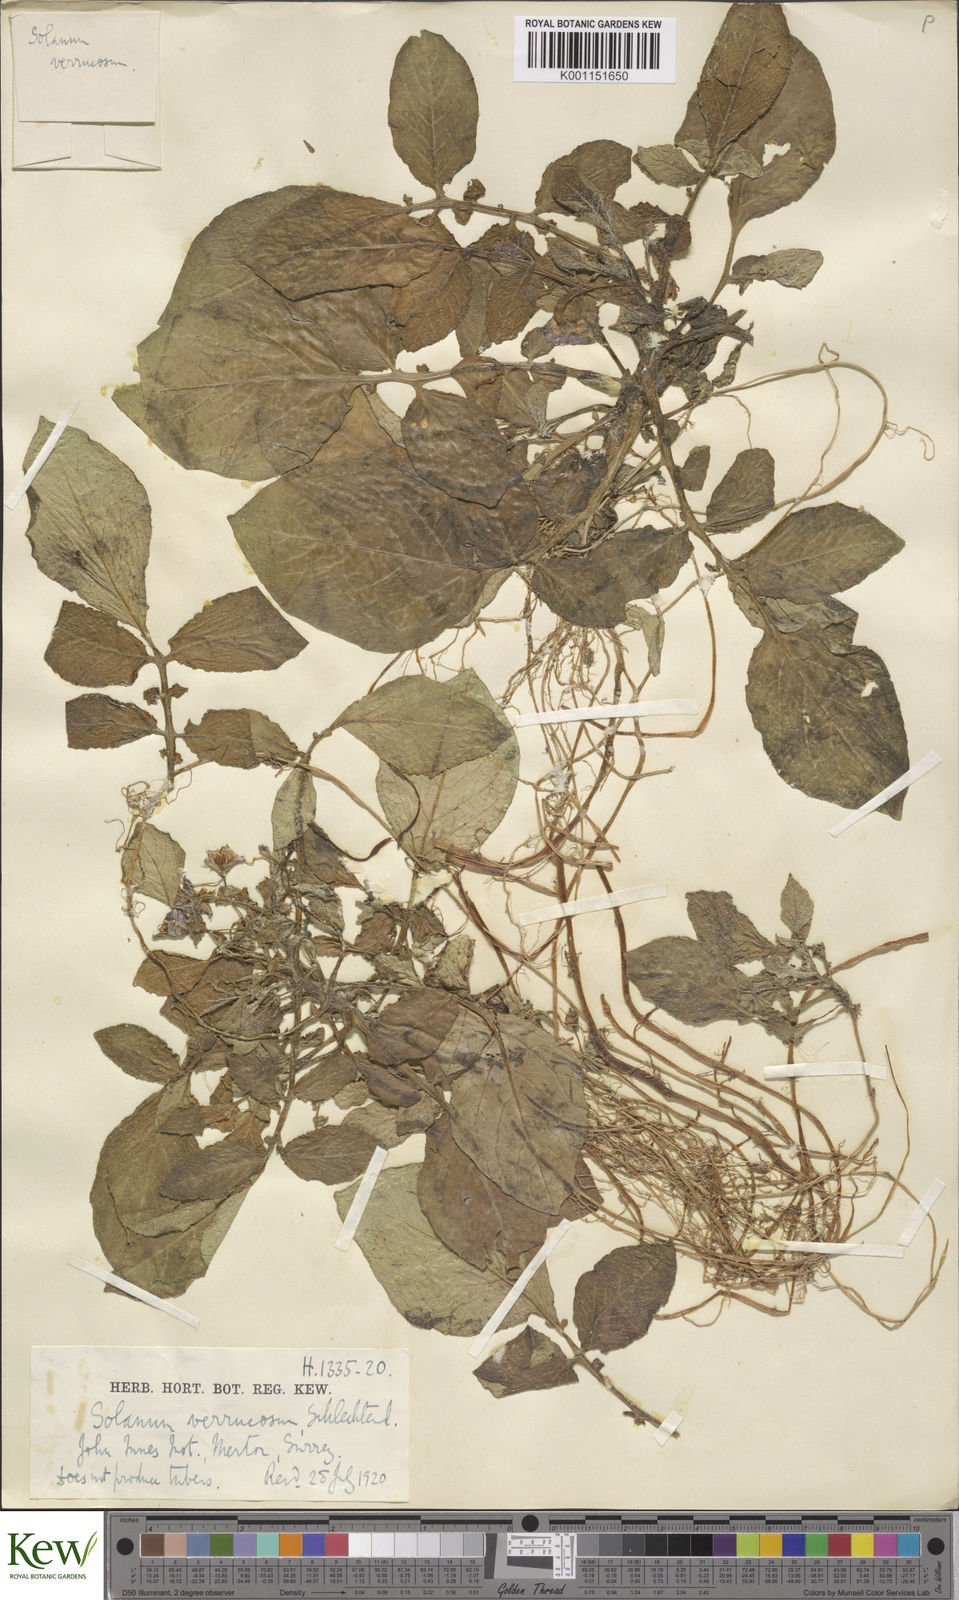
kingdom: Plantae
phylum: Tracheophyta
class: Magnoliopsida
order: Solanales
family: Solanaceae
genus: Solanum
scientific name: Solanum verrucosum
